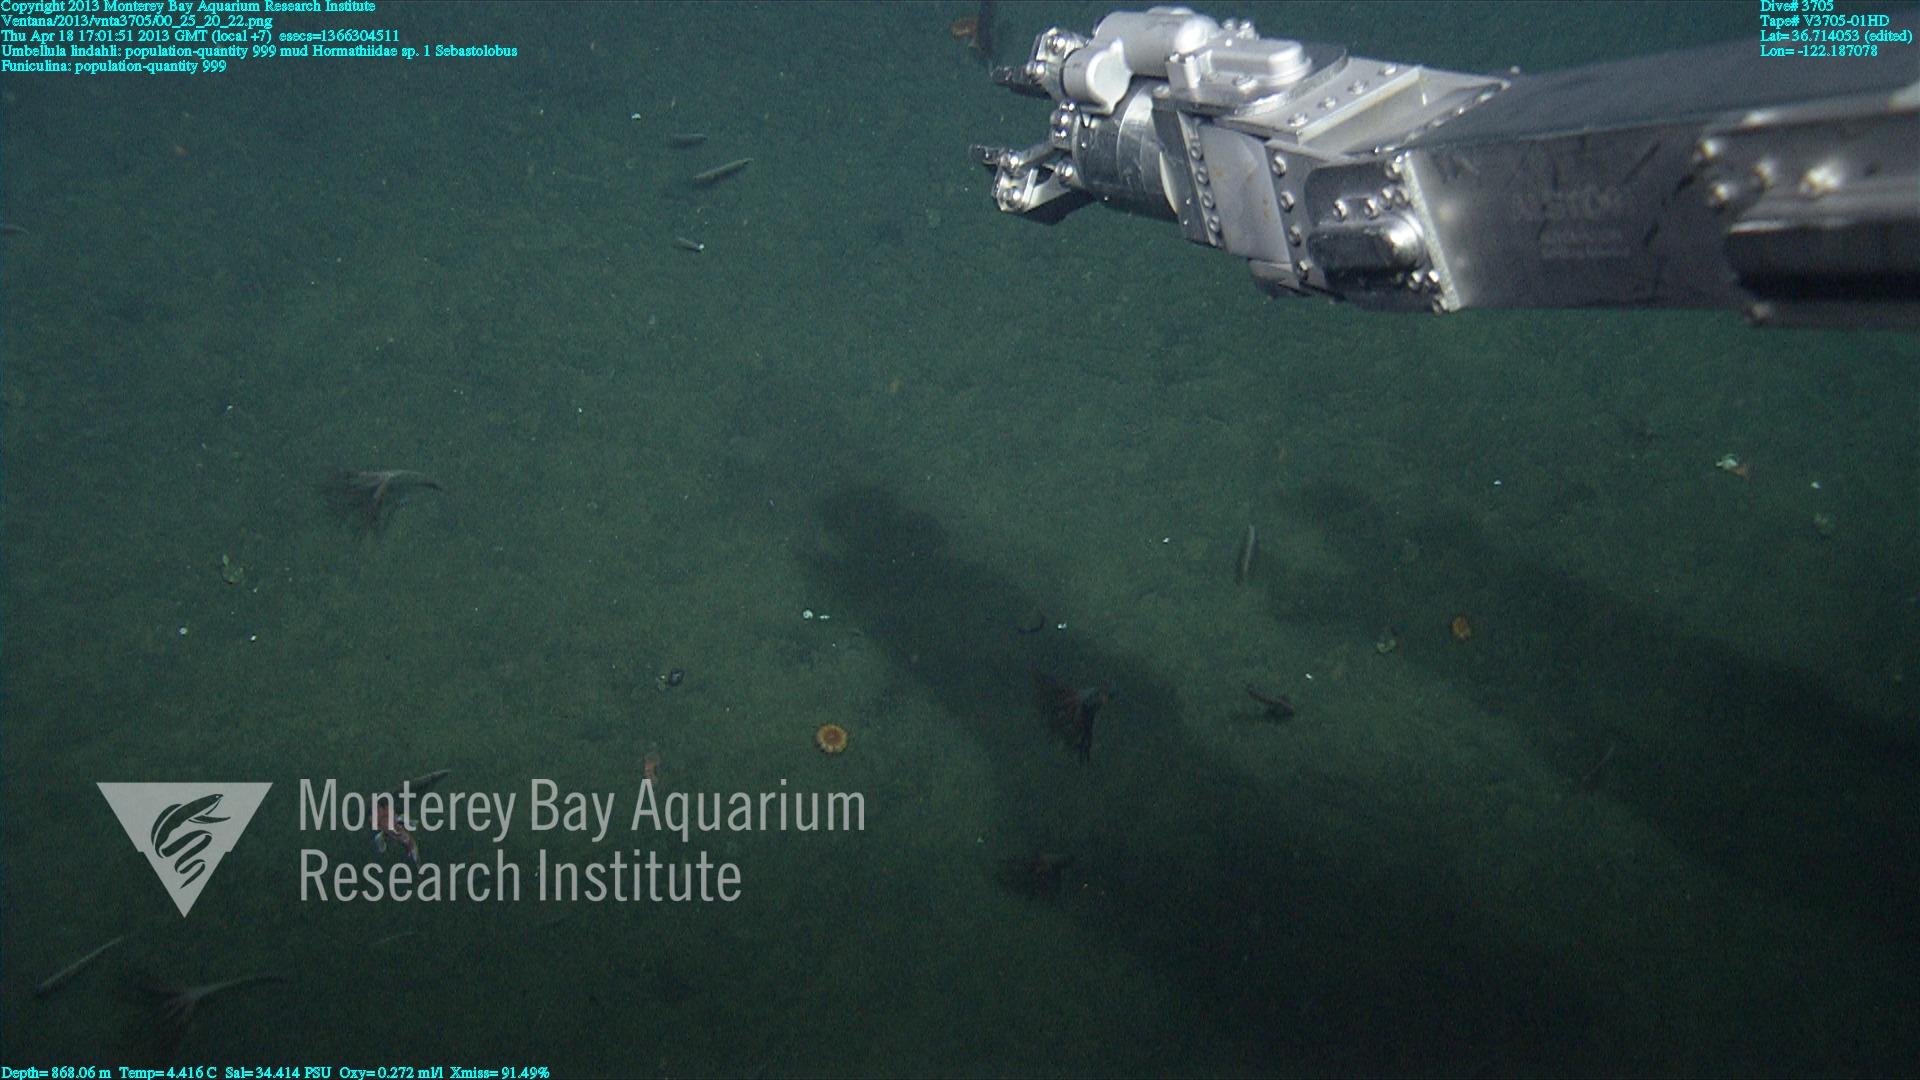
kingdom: Animalia
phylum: Cnidaria
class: Anthozoa
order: Scleralcyonacea
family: Funiculinidae
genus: Funiculina
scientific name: Funiculina
